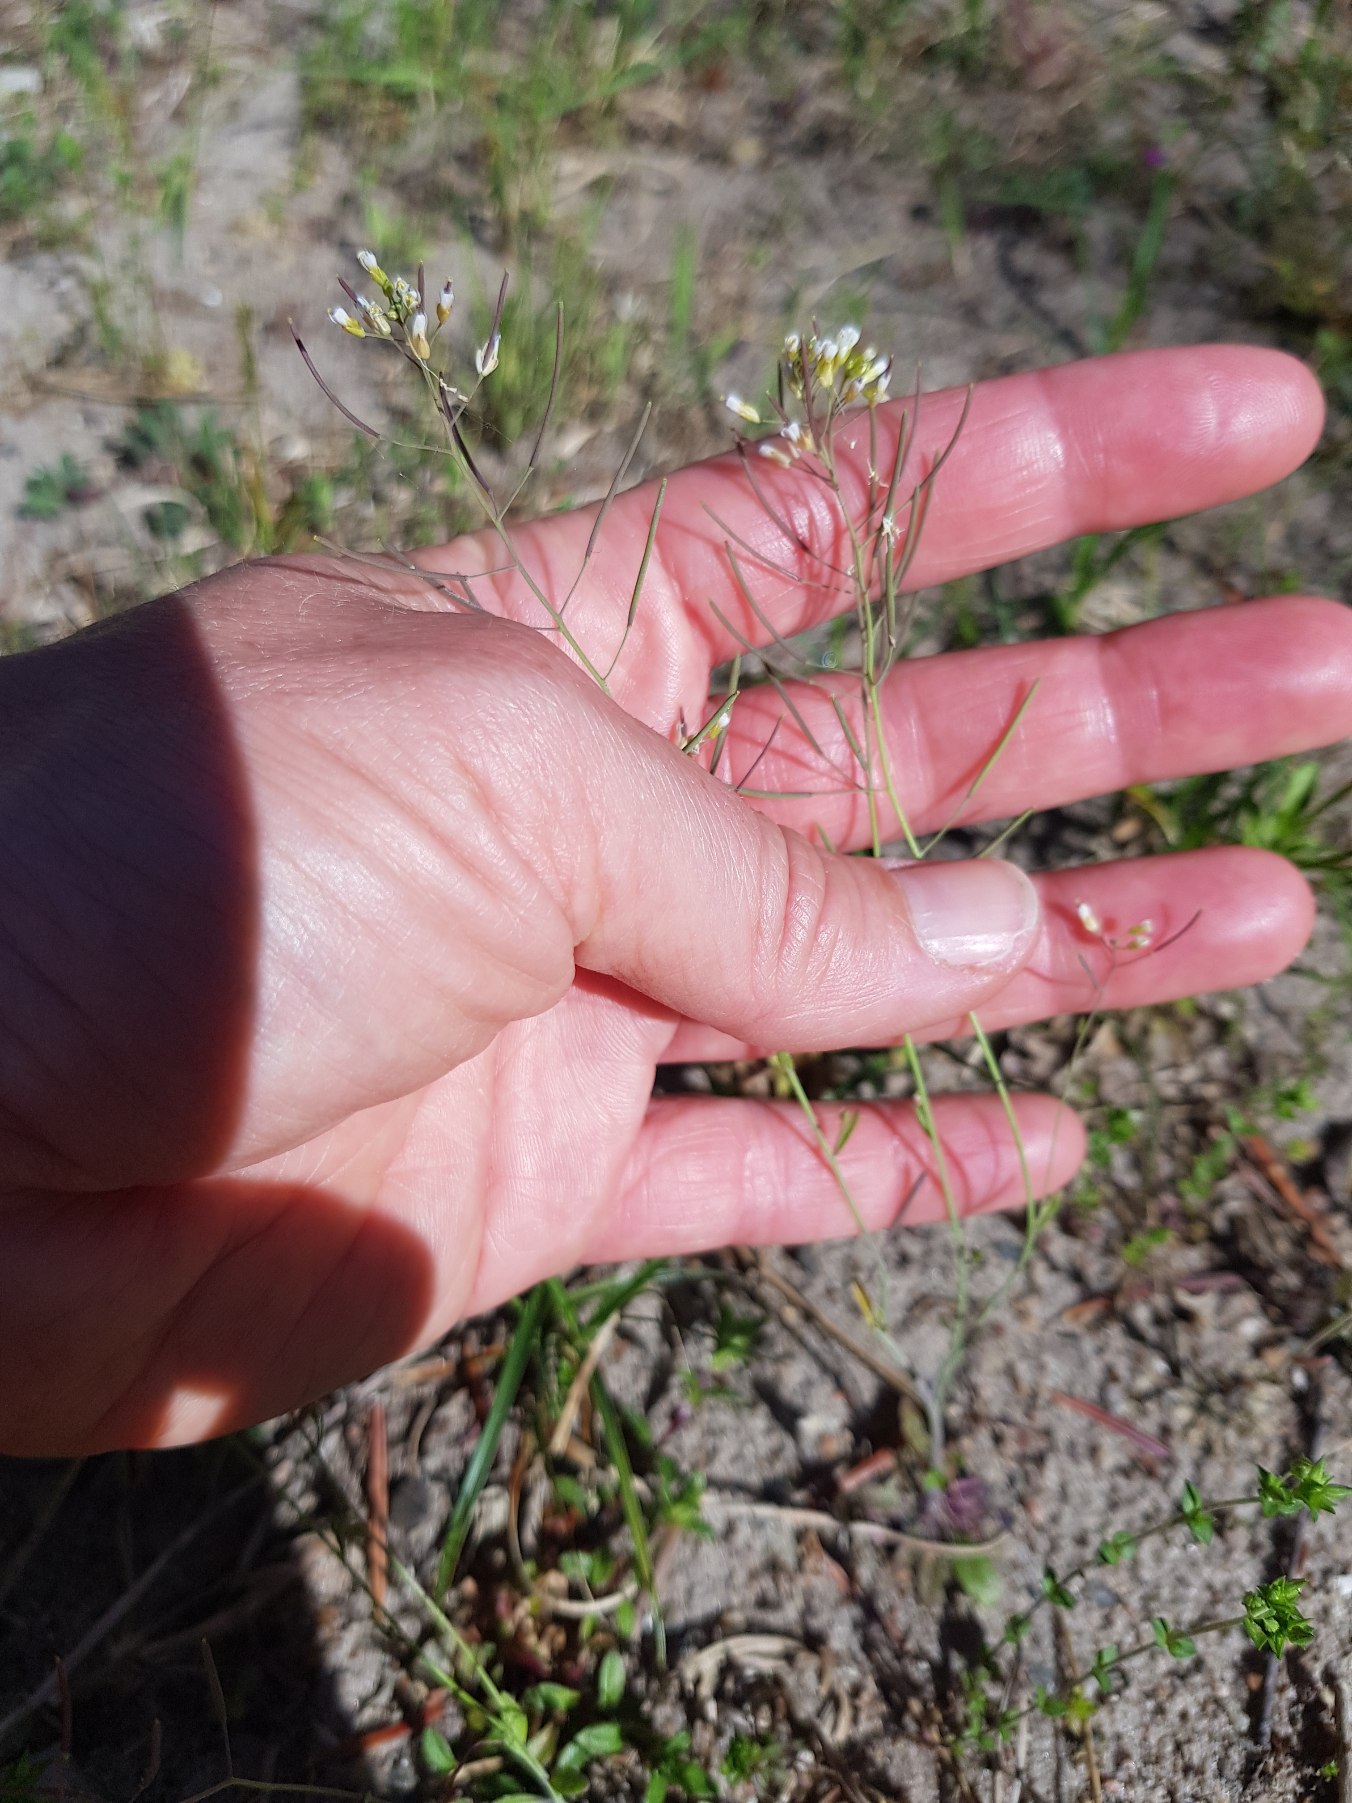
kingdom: Plantae
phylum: Tracheophyta
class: Magnoliopsida
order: Brassicales
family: Brassicaceae
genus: Arabidopsis
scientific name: Arabidopsis thaliana
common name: Almindelig gåsemad
